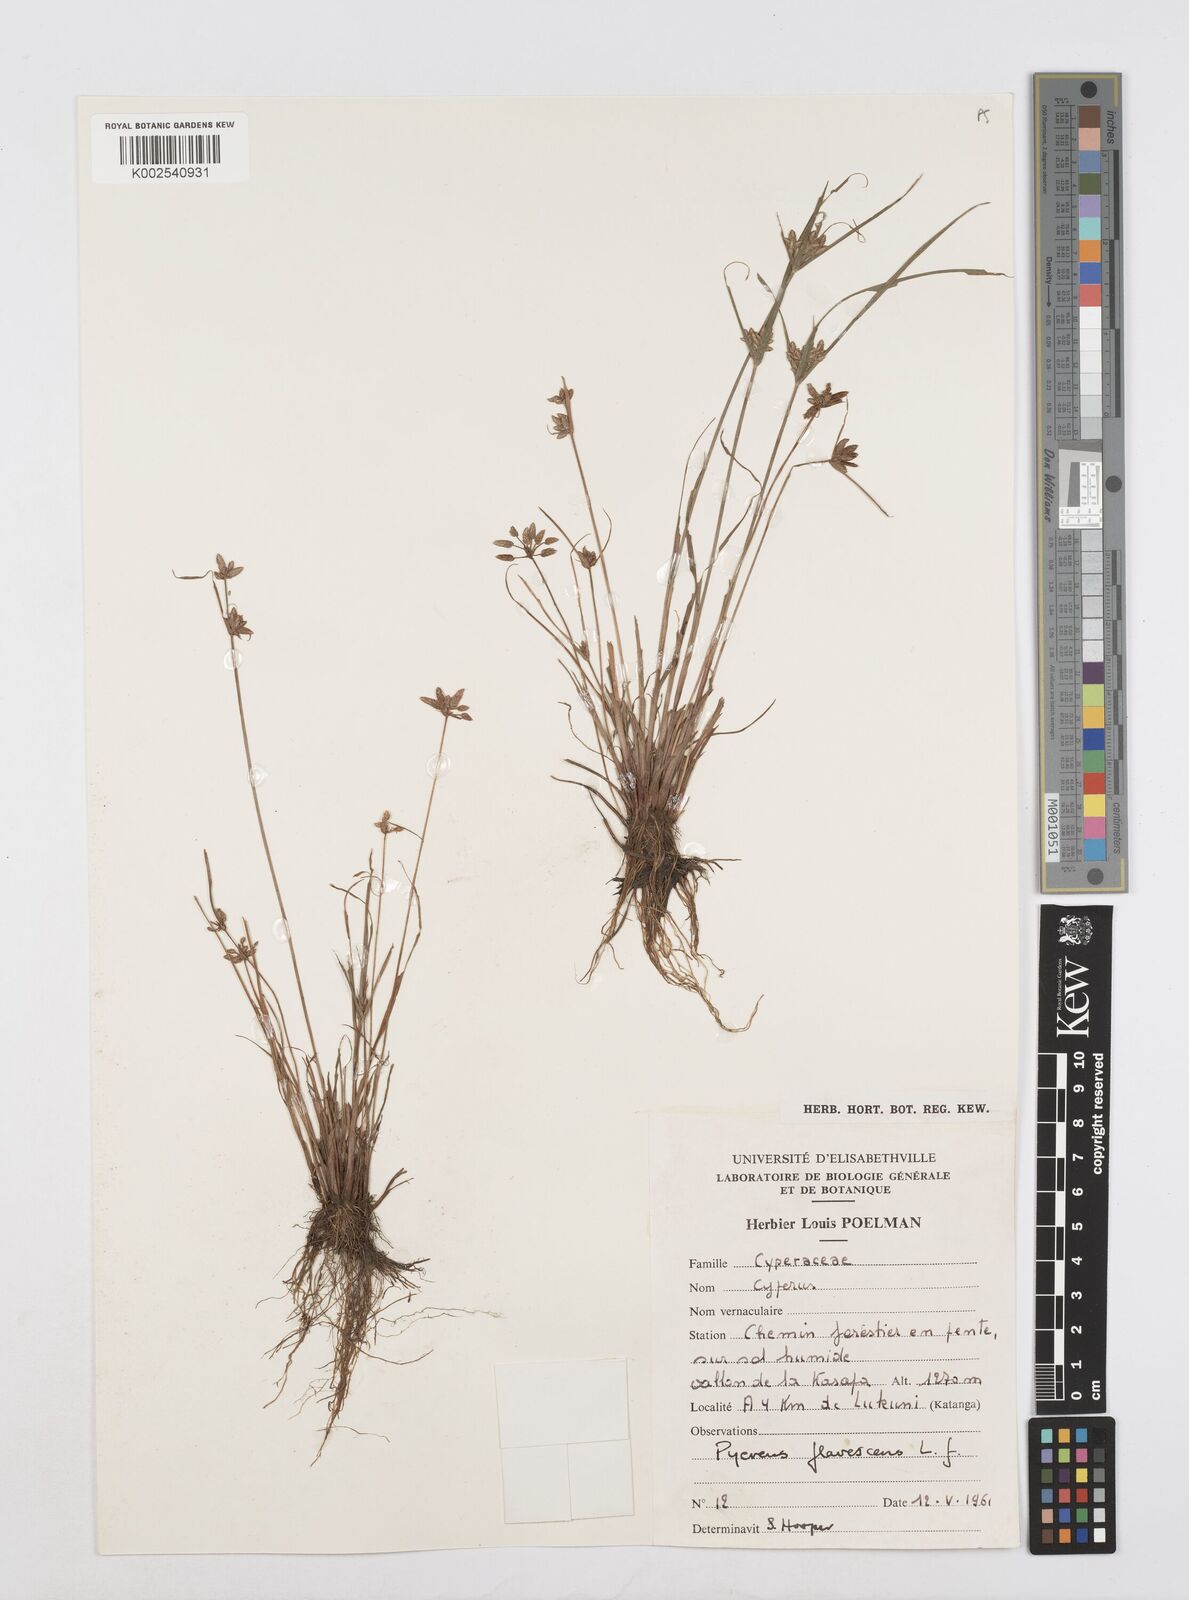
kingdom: Plantae
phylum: Tracheophyta
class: Liliopsida
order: Poales
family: Cyperaceae
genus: Cyperus
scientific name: Cyperus flavescens
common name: Yellow galingale
